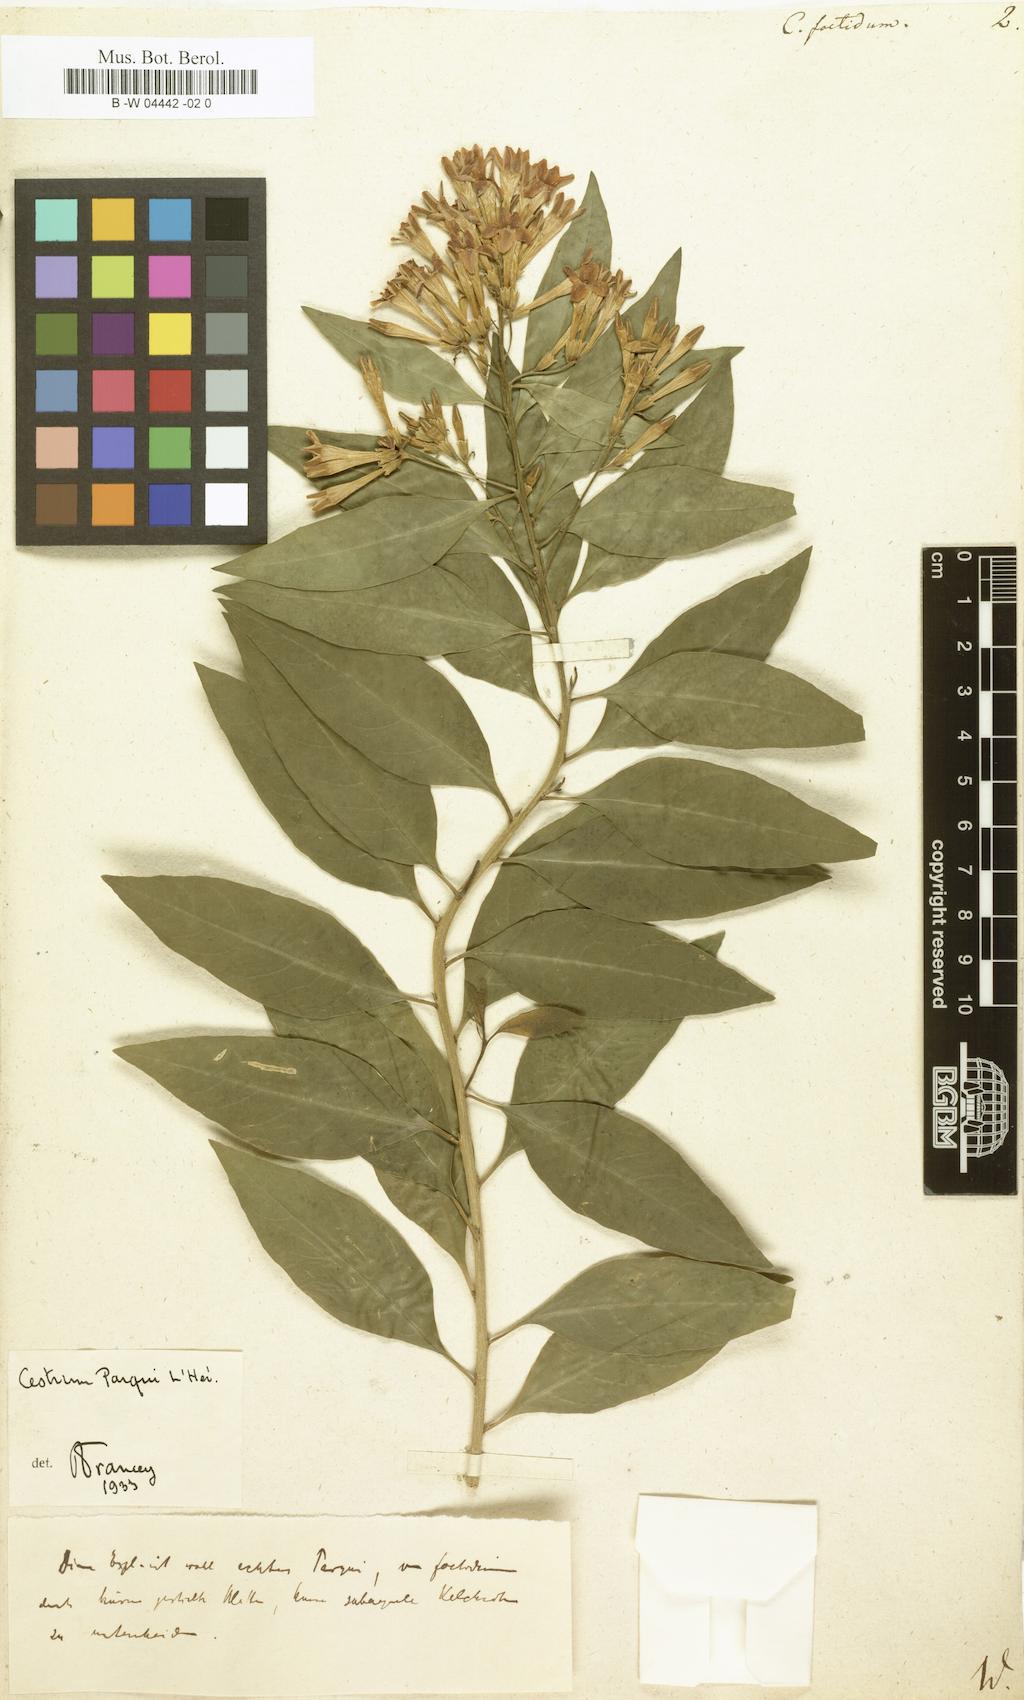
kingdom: Plantae
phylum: Tracheophyta
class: Magnoliopsida
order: Solanales
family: Solanaceae
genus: Cestrum
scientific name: Cestrum
